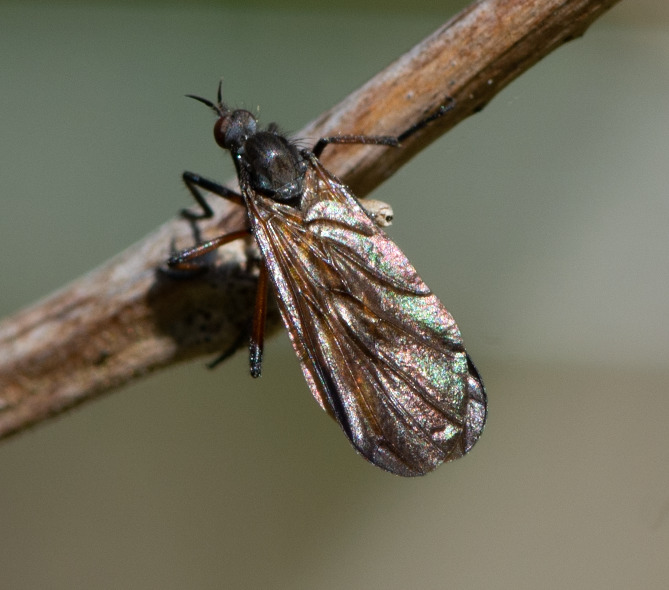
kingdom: Animalia
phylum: Arthropoda
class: Insecta
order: Diptera
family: Empididae
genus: Empis
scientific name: Empis borealis
